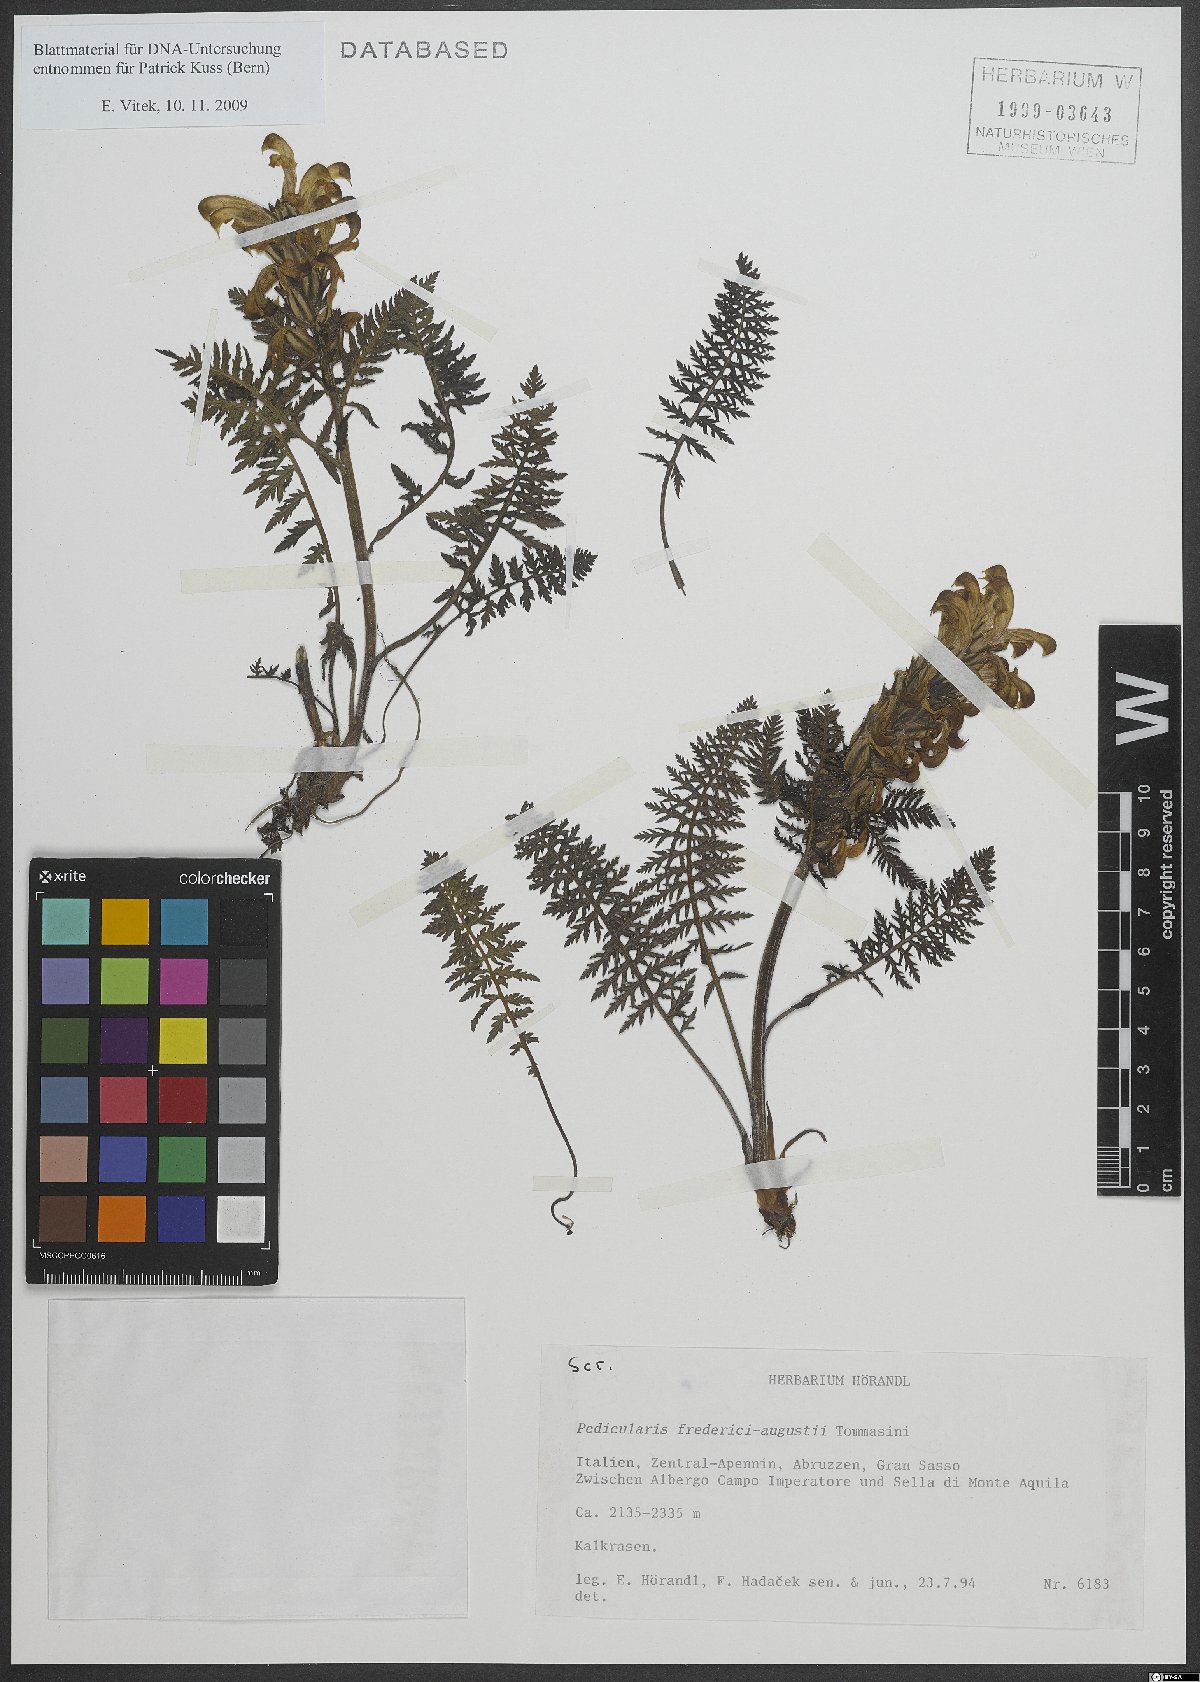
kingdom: Plantae
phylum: Tracheophyta
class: Magnoliopsida
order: Lamiales
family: Orobanchaceae
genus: Pedicularis
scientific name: Pedicularis friderici-augusti
